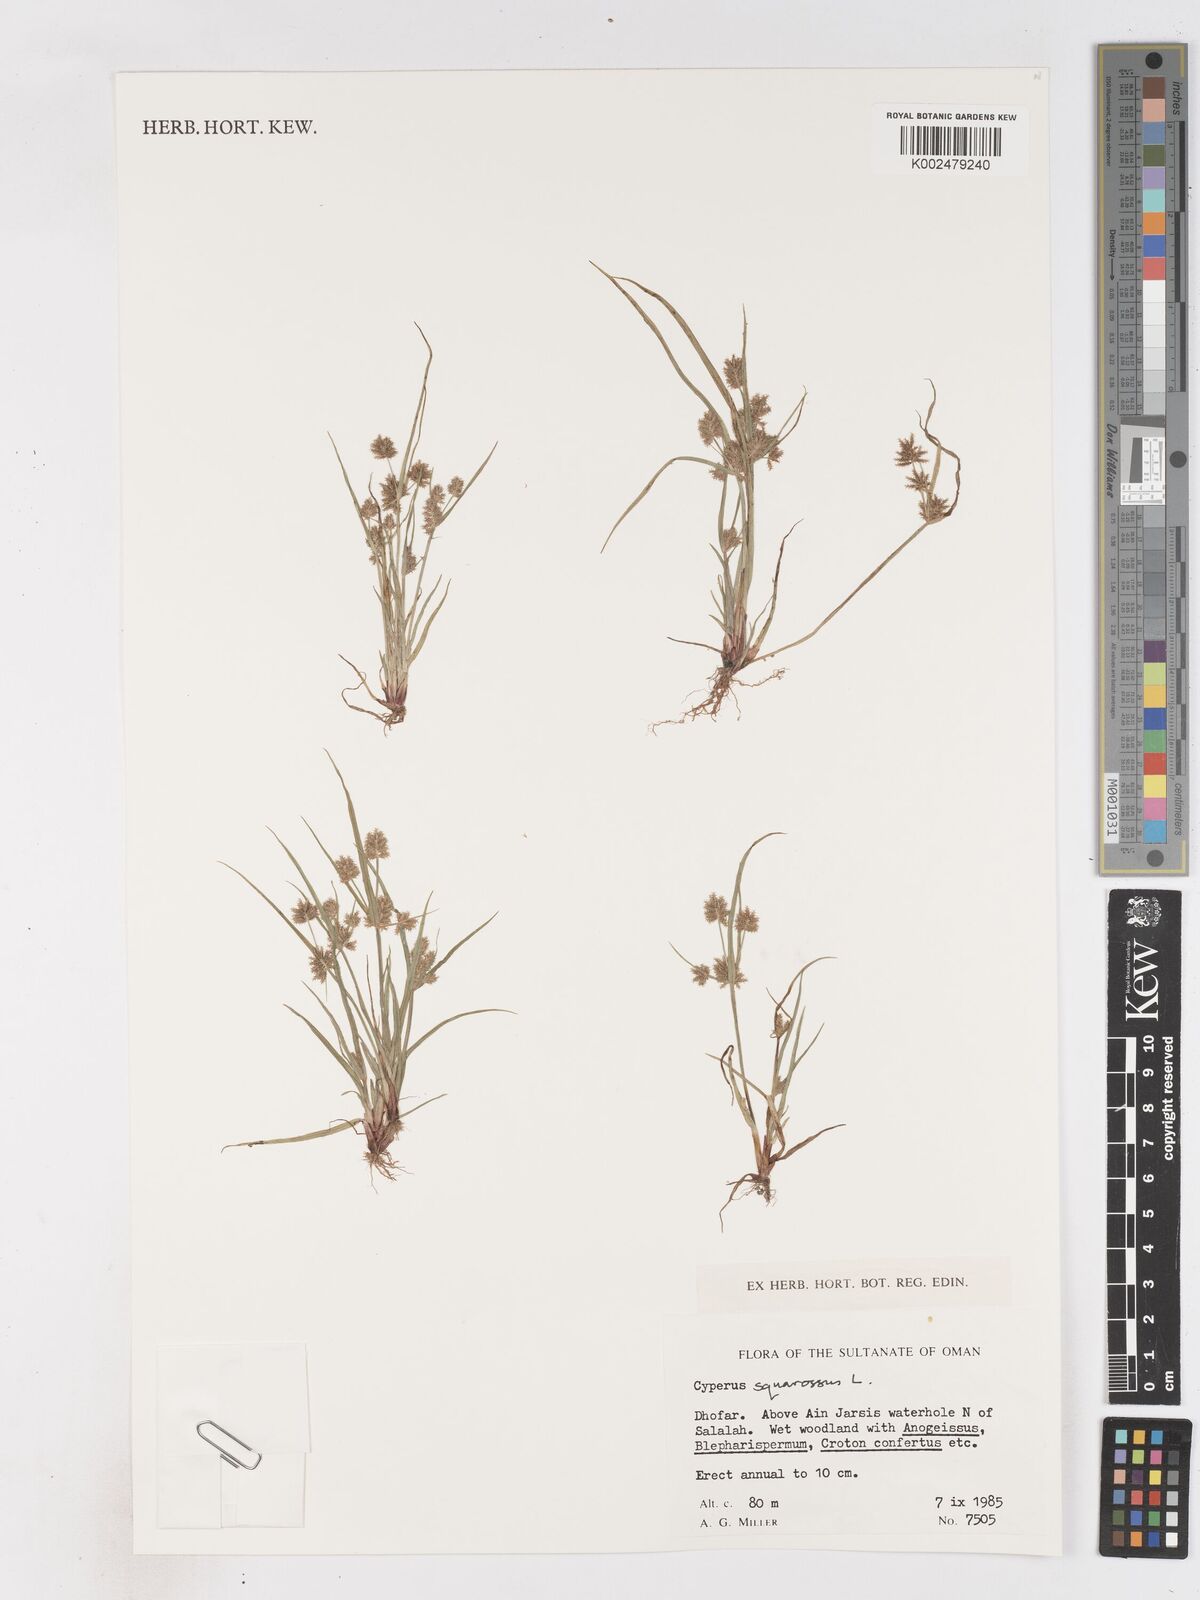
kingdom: Plantae
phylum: Tracheophyta
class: Liliopsida
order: Poales
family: Cyperaceae
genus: Cyperus
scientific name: Cyperus squarrosus
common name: Awned cyperus
